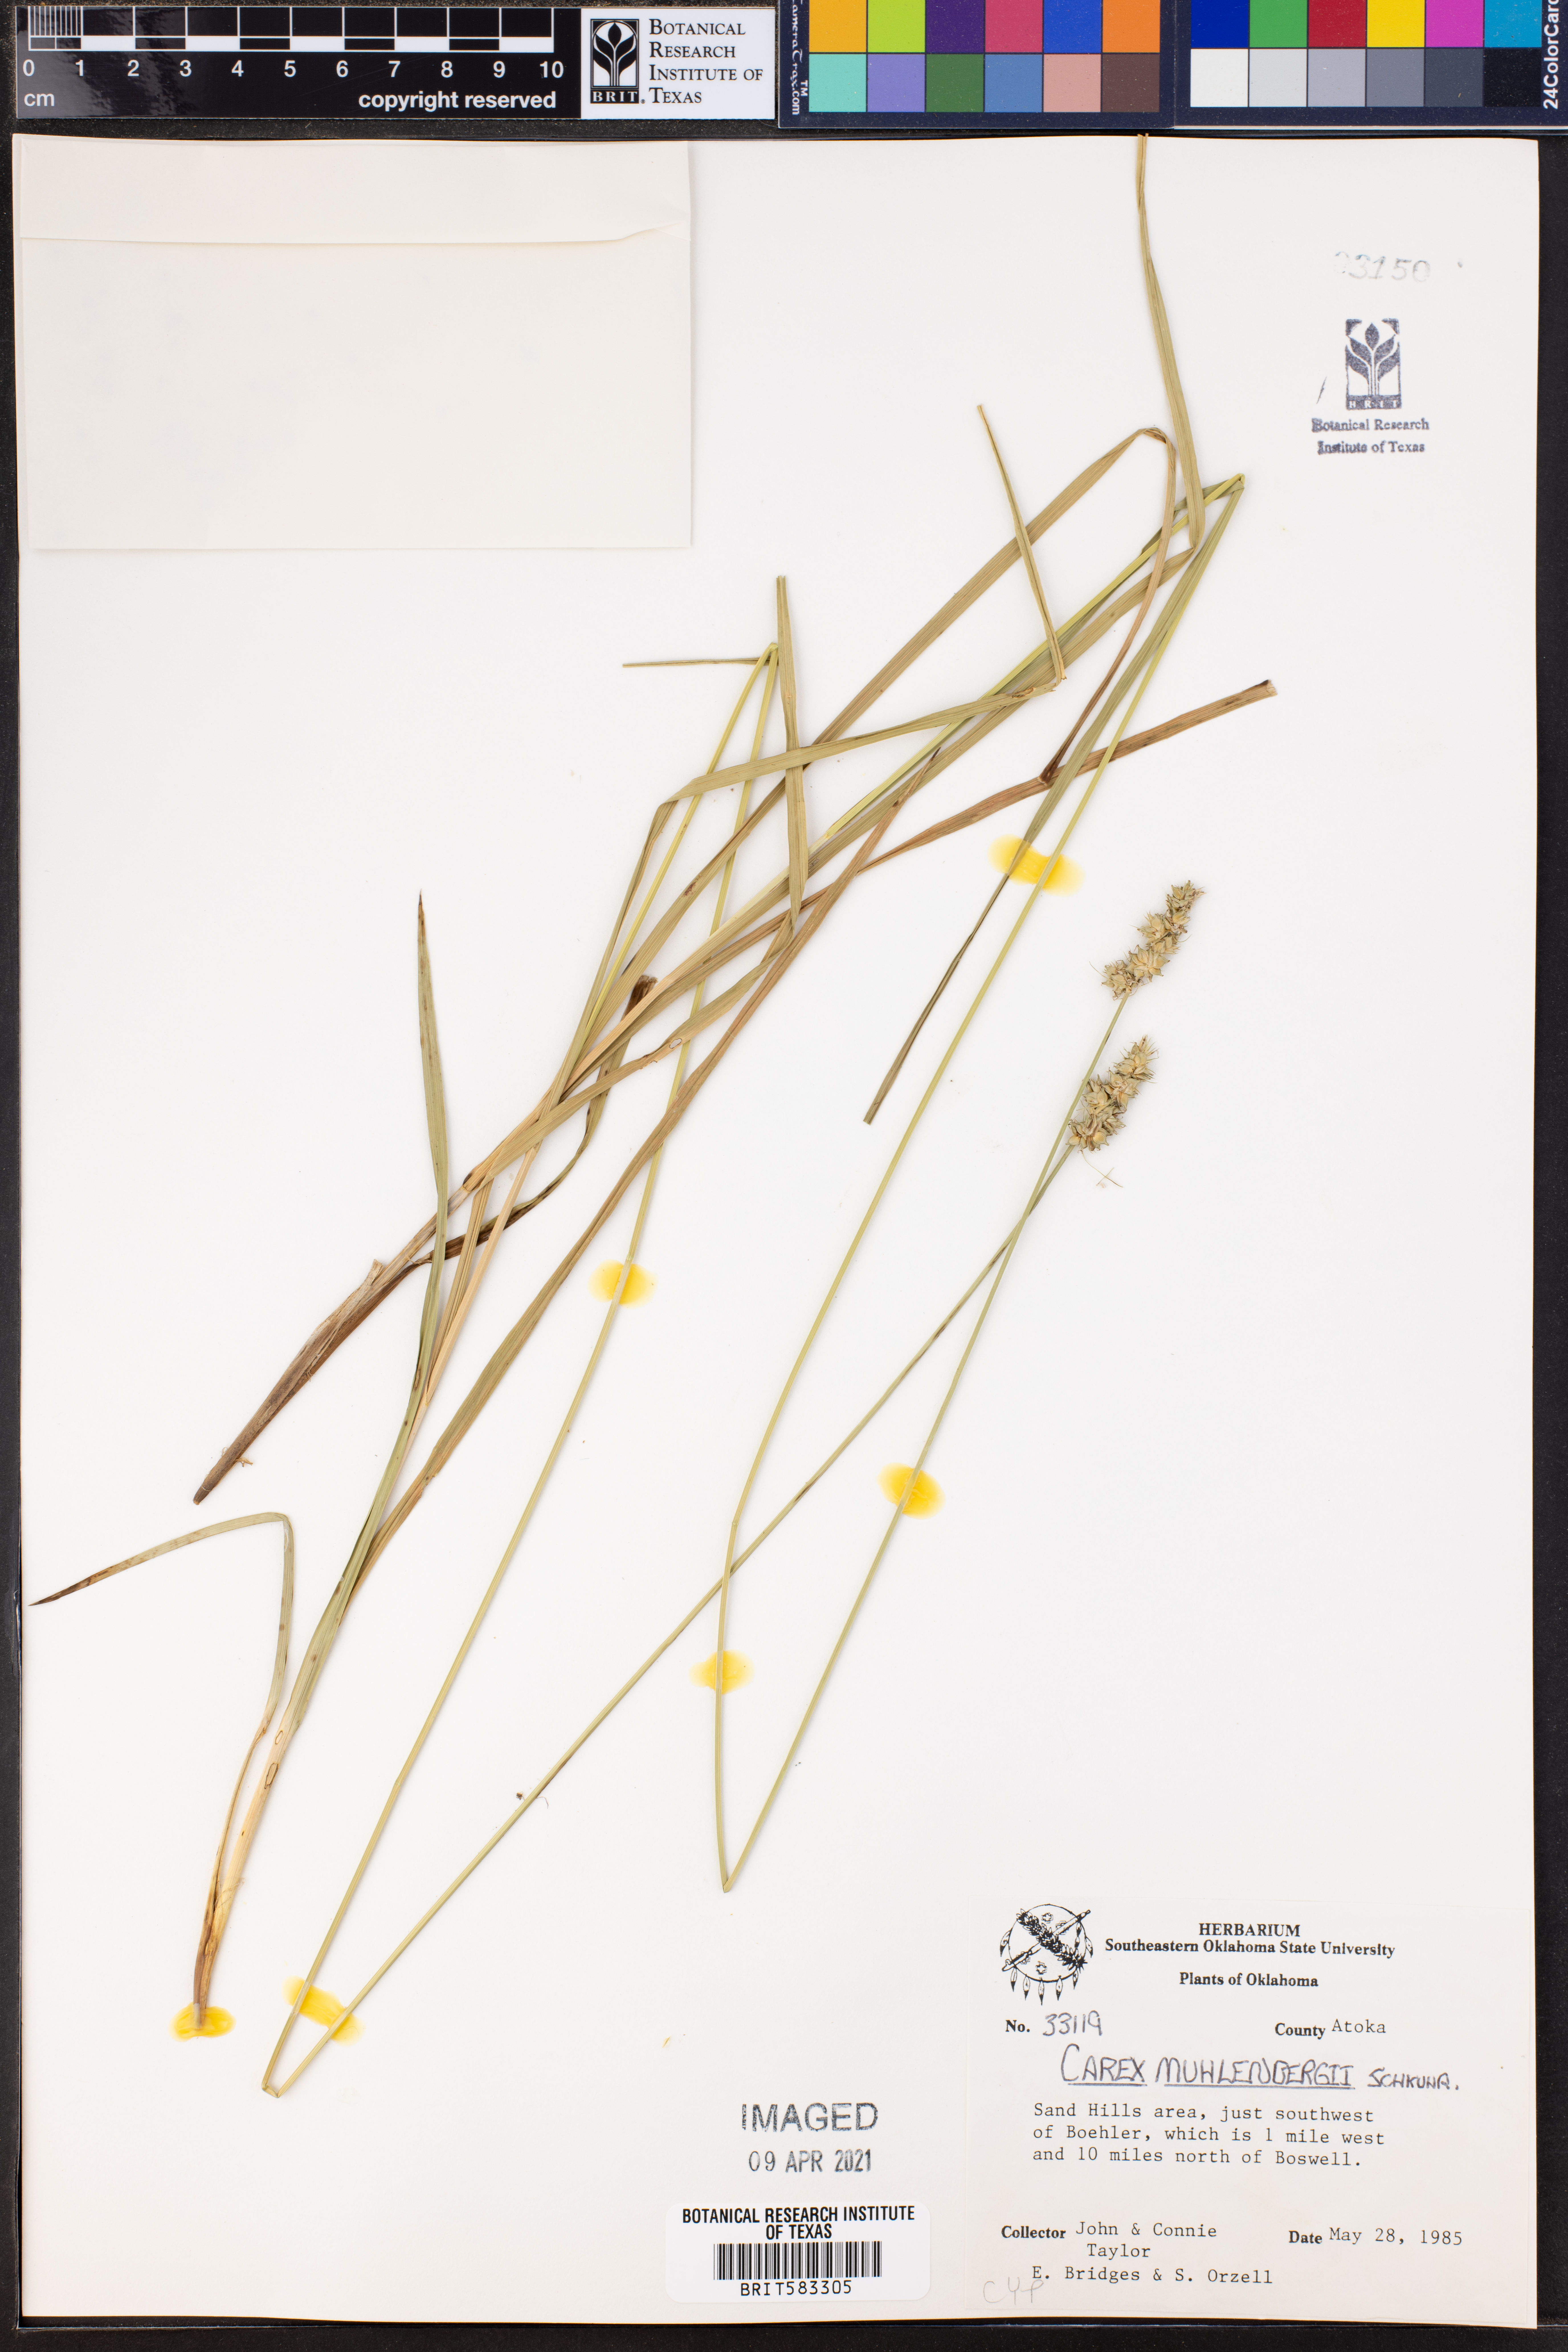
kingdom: Plantae
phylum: Tracheophyta
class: Liliopsida
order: Poales
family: Cyperaceae
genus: Carex
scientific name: Carex vulpinoidea
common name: American fox-sedge
